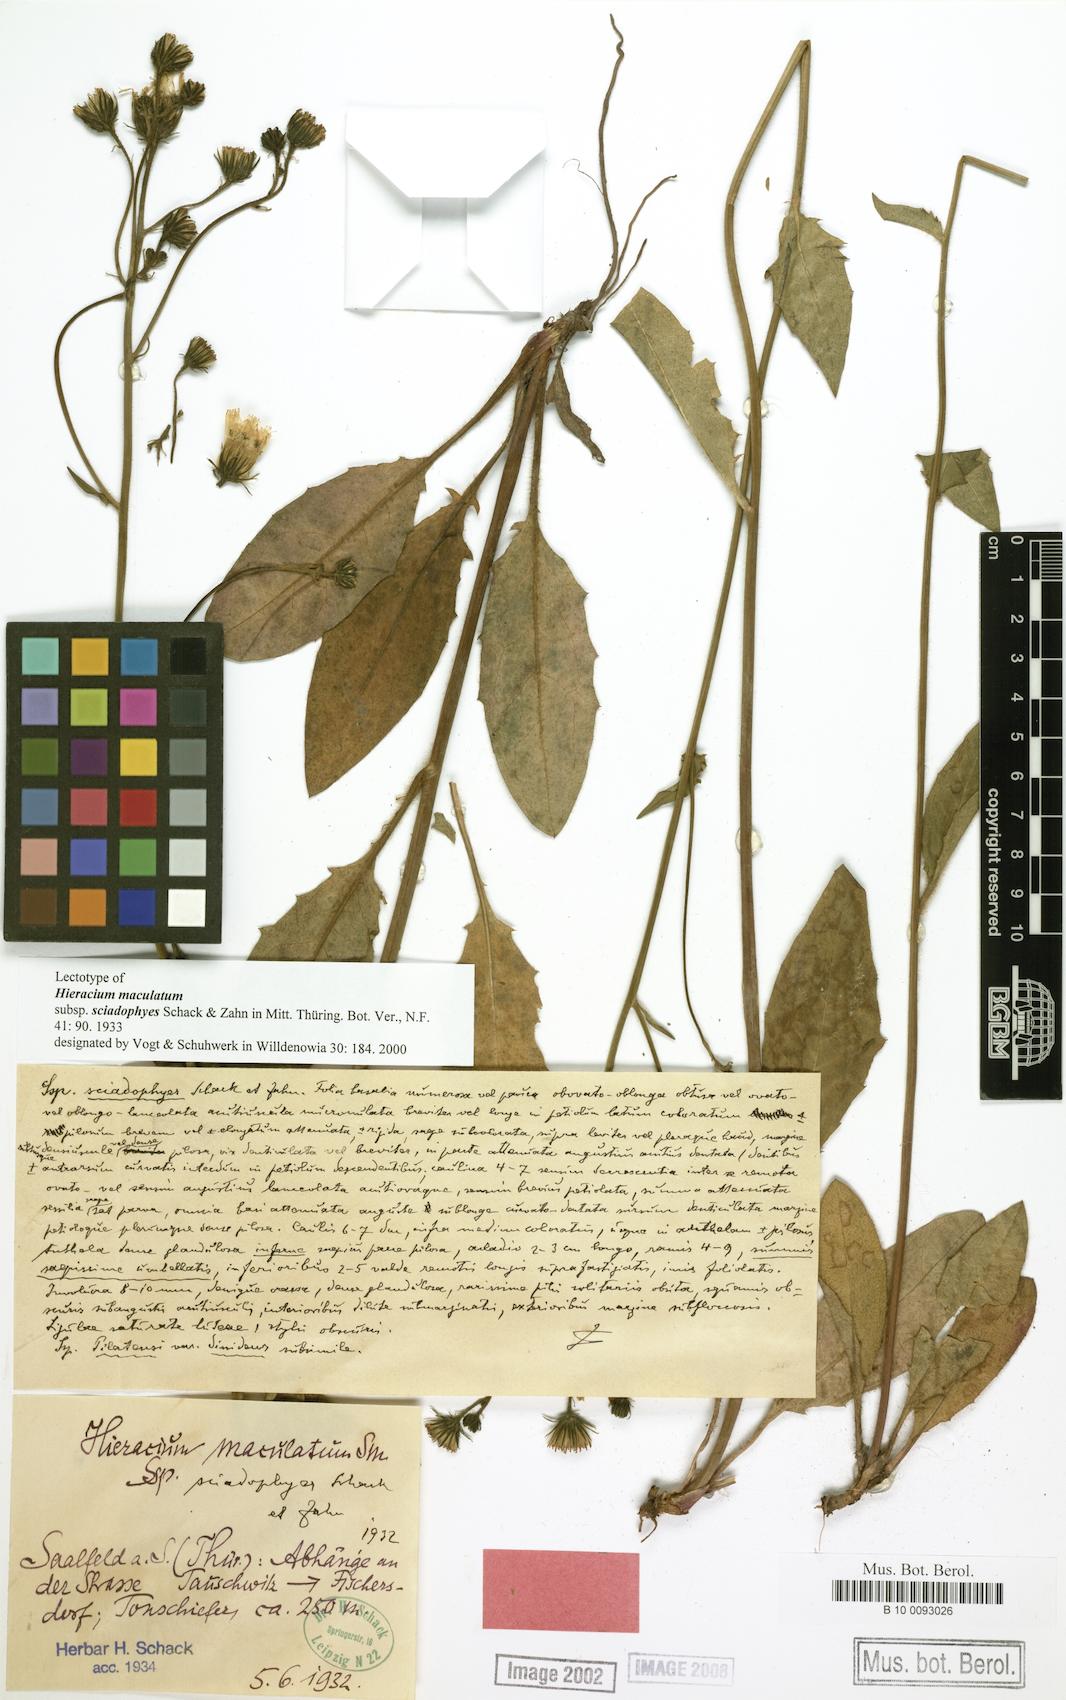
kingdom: Plantae
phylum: Tracheophyta
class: Magnoliopsida
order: Asterales
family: Asteraceae
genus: Hieracium
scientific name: Hieracium maculatum
